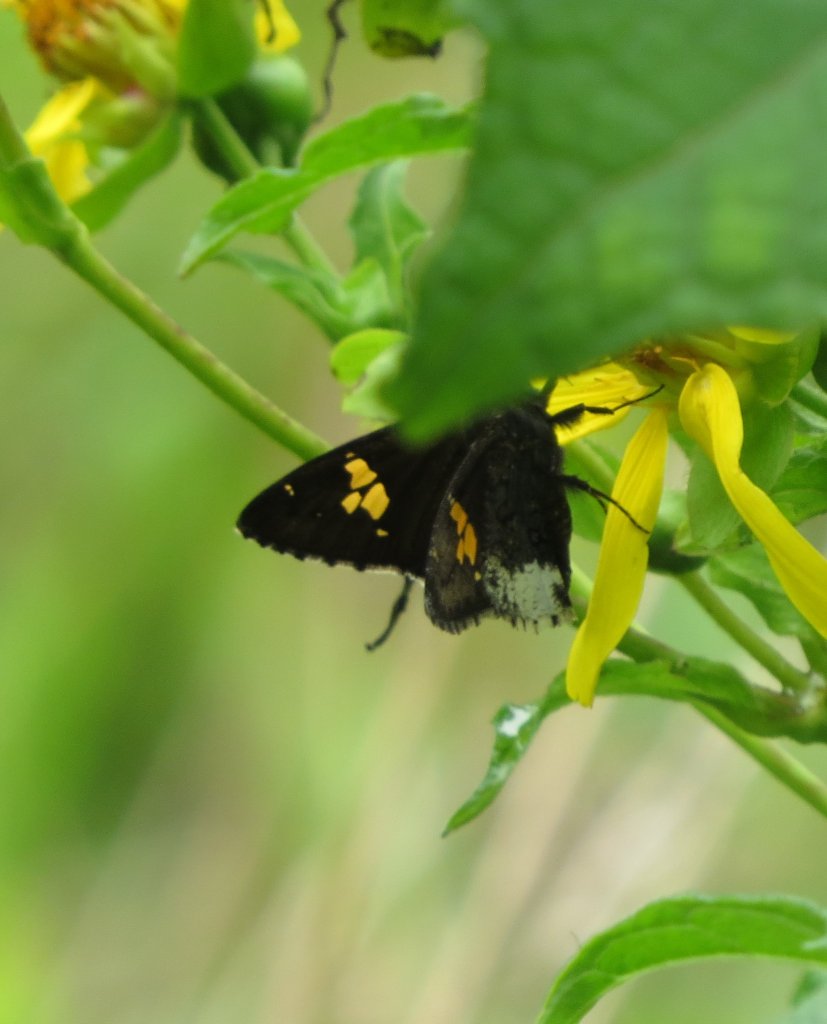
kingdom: Animalia
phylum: Arthropoda
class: Insecta
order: Lepidoptera
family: Hesperiidae
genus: Achalarus
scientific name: Achalarus lyciades
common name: Hoary Edge
